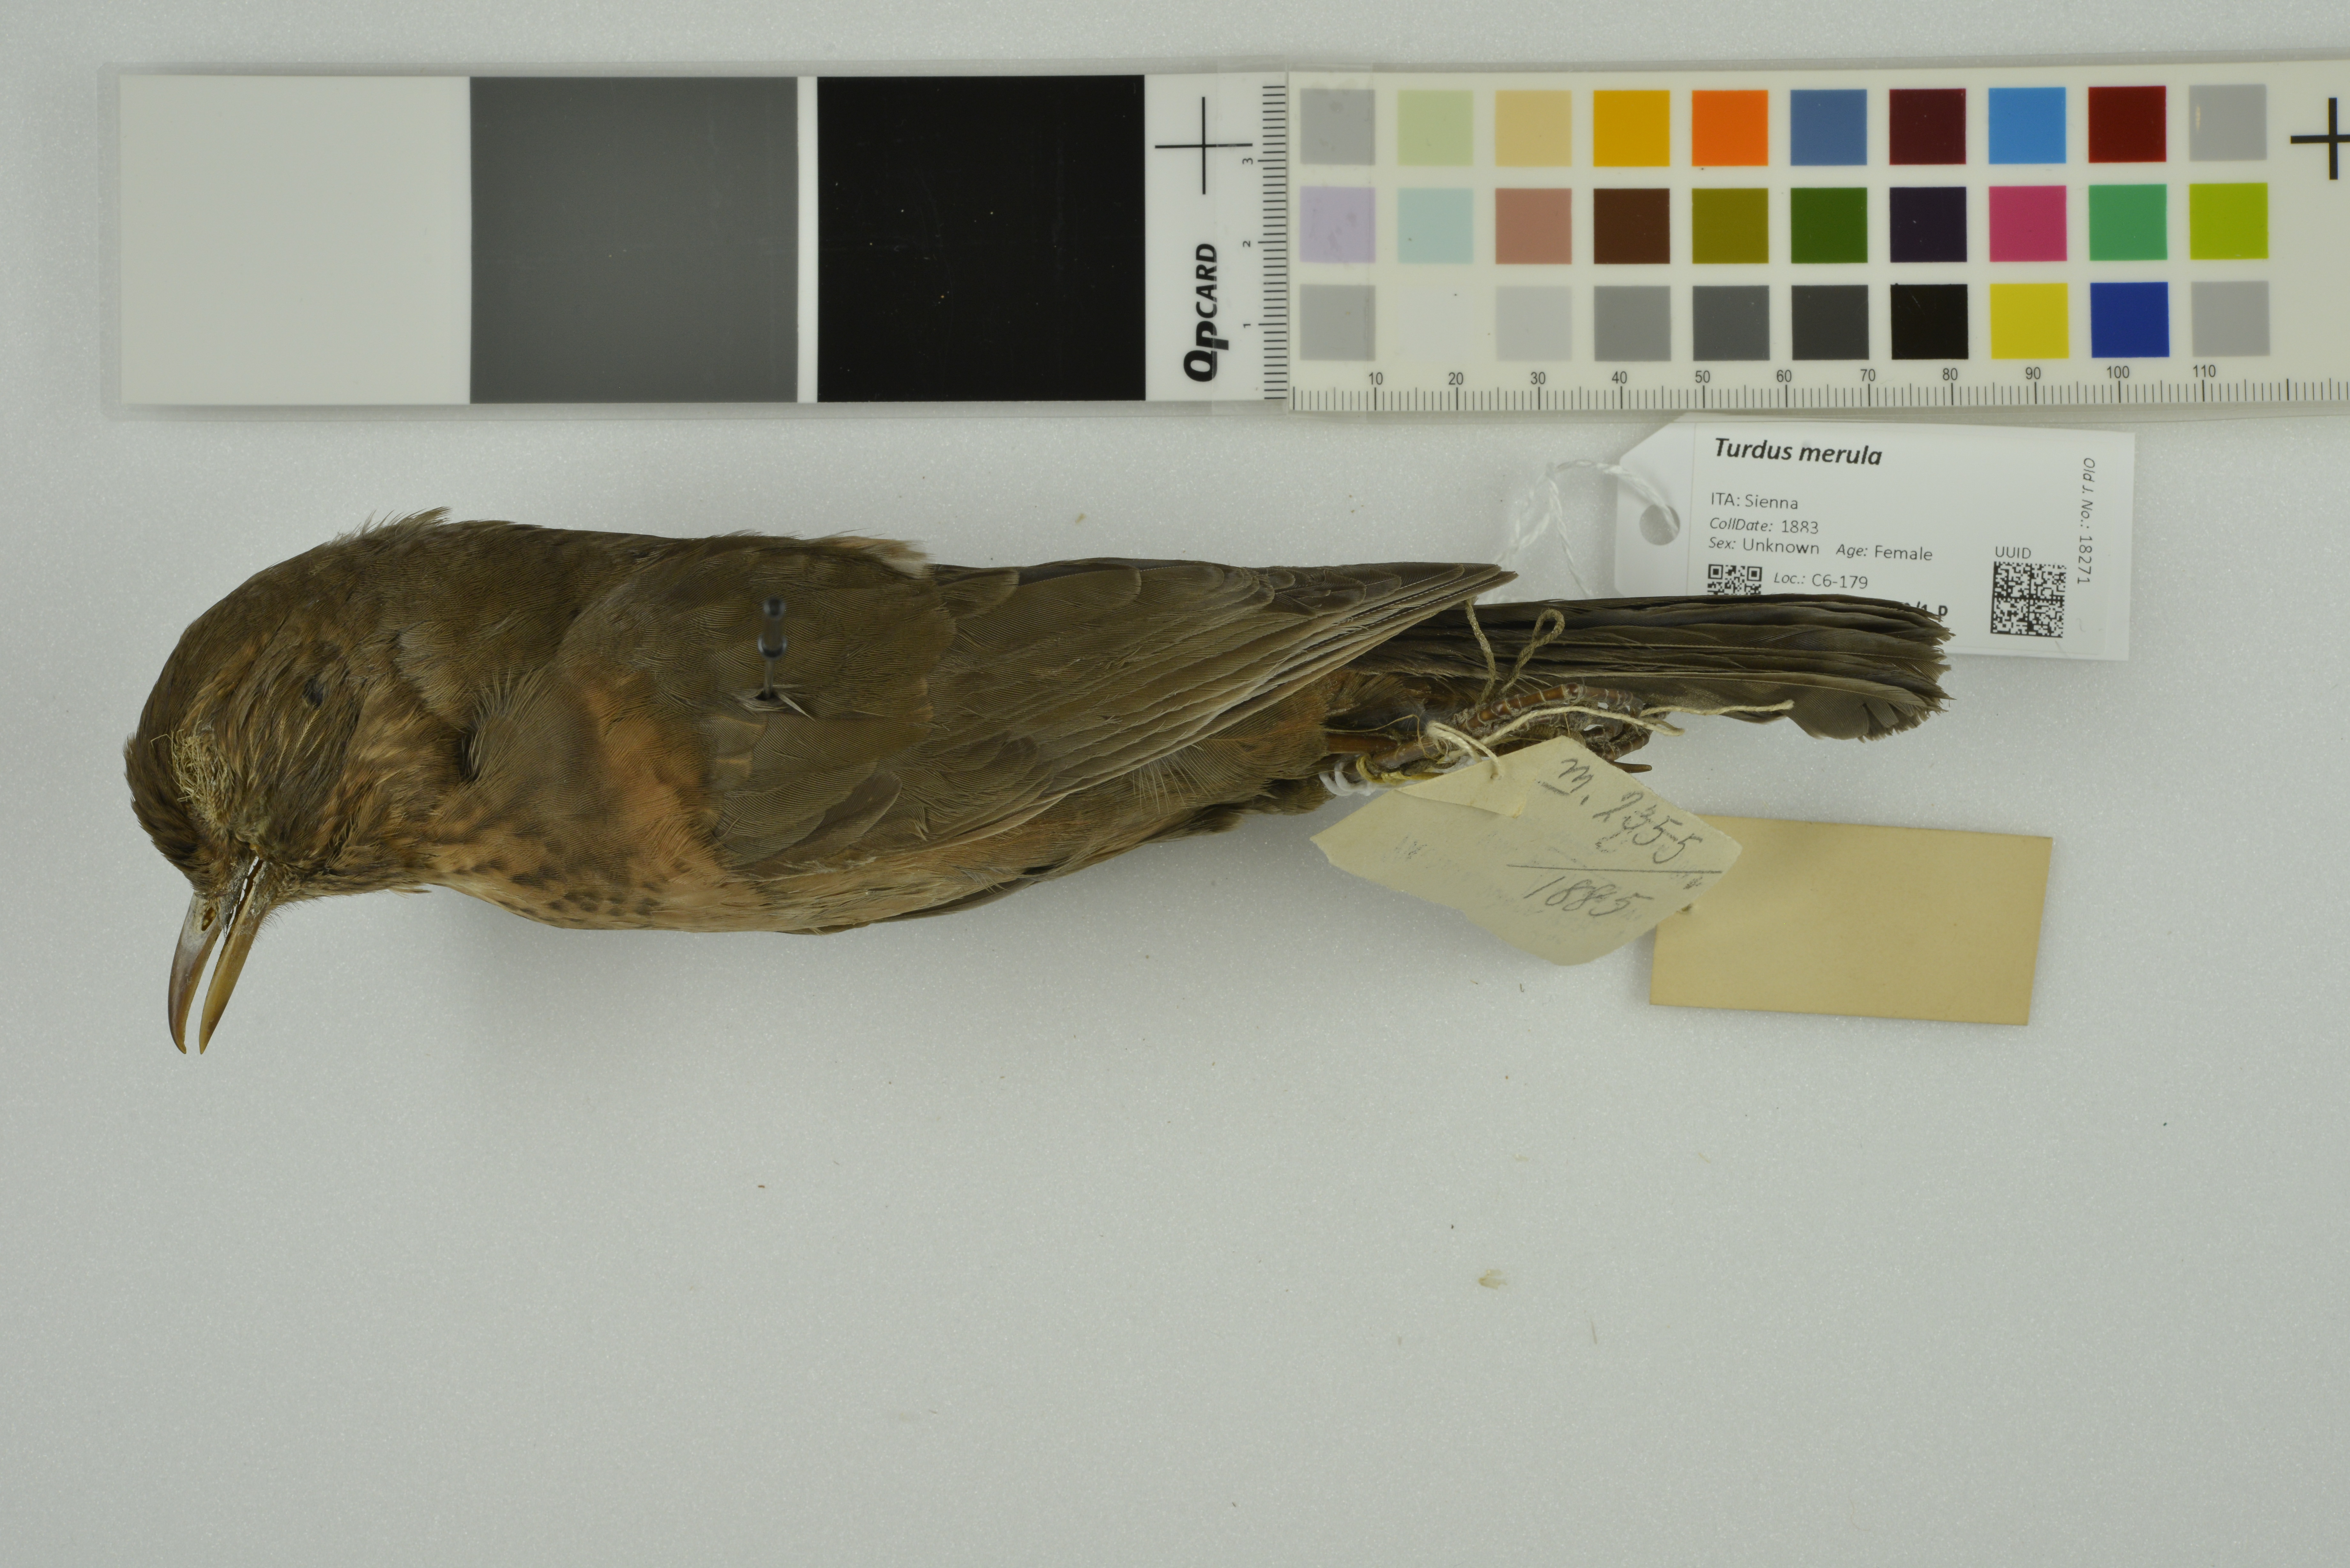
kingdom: Animalia
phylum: Chordata
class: Aves
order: Passeriformes
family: Turdidae
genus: Turdus
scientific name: Turdus merula
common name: Common blackbird
